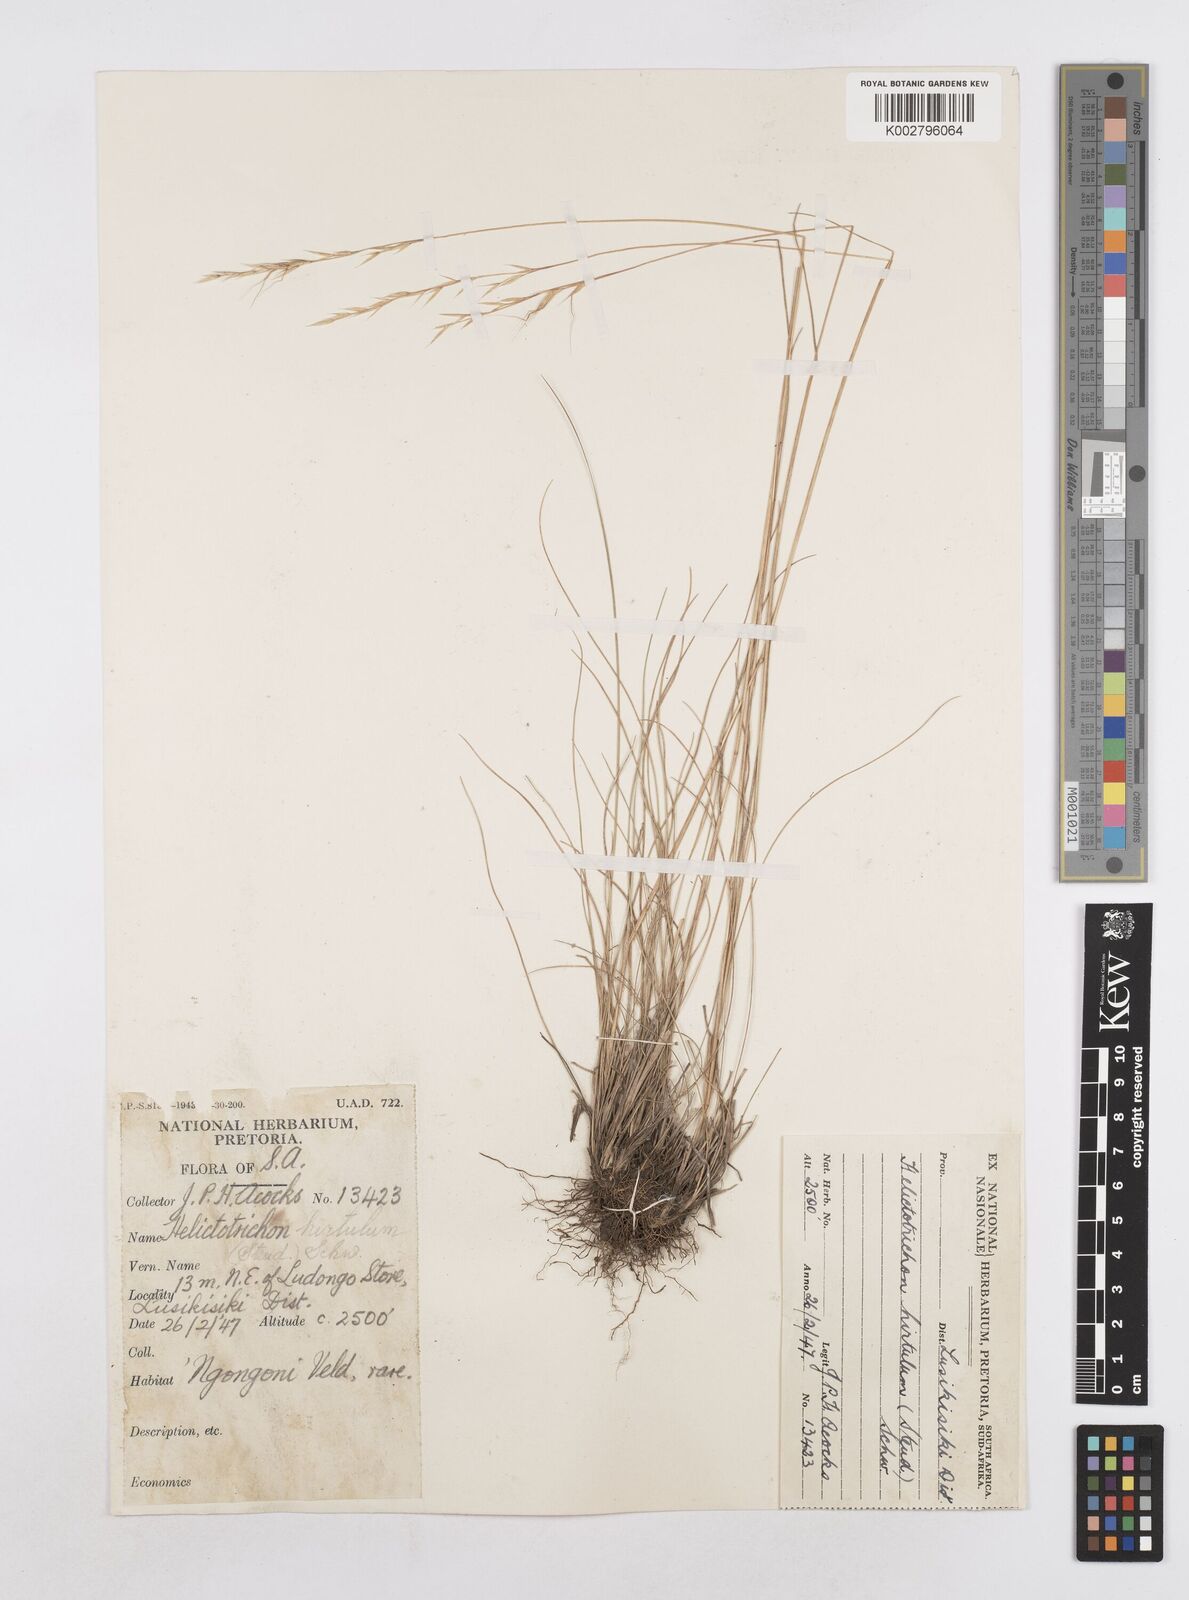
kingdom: Plantae
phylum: Tracheophyta
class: Liliopsida
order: Poales
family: Poaceae
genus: Trisetopsis
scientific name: Trisetopsis hirtula
